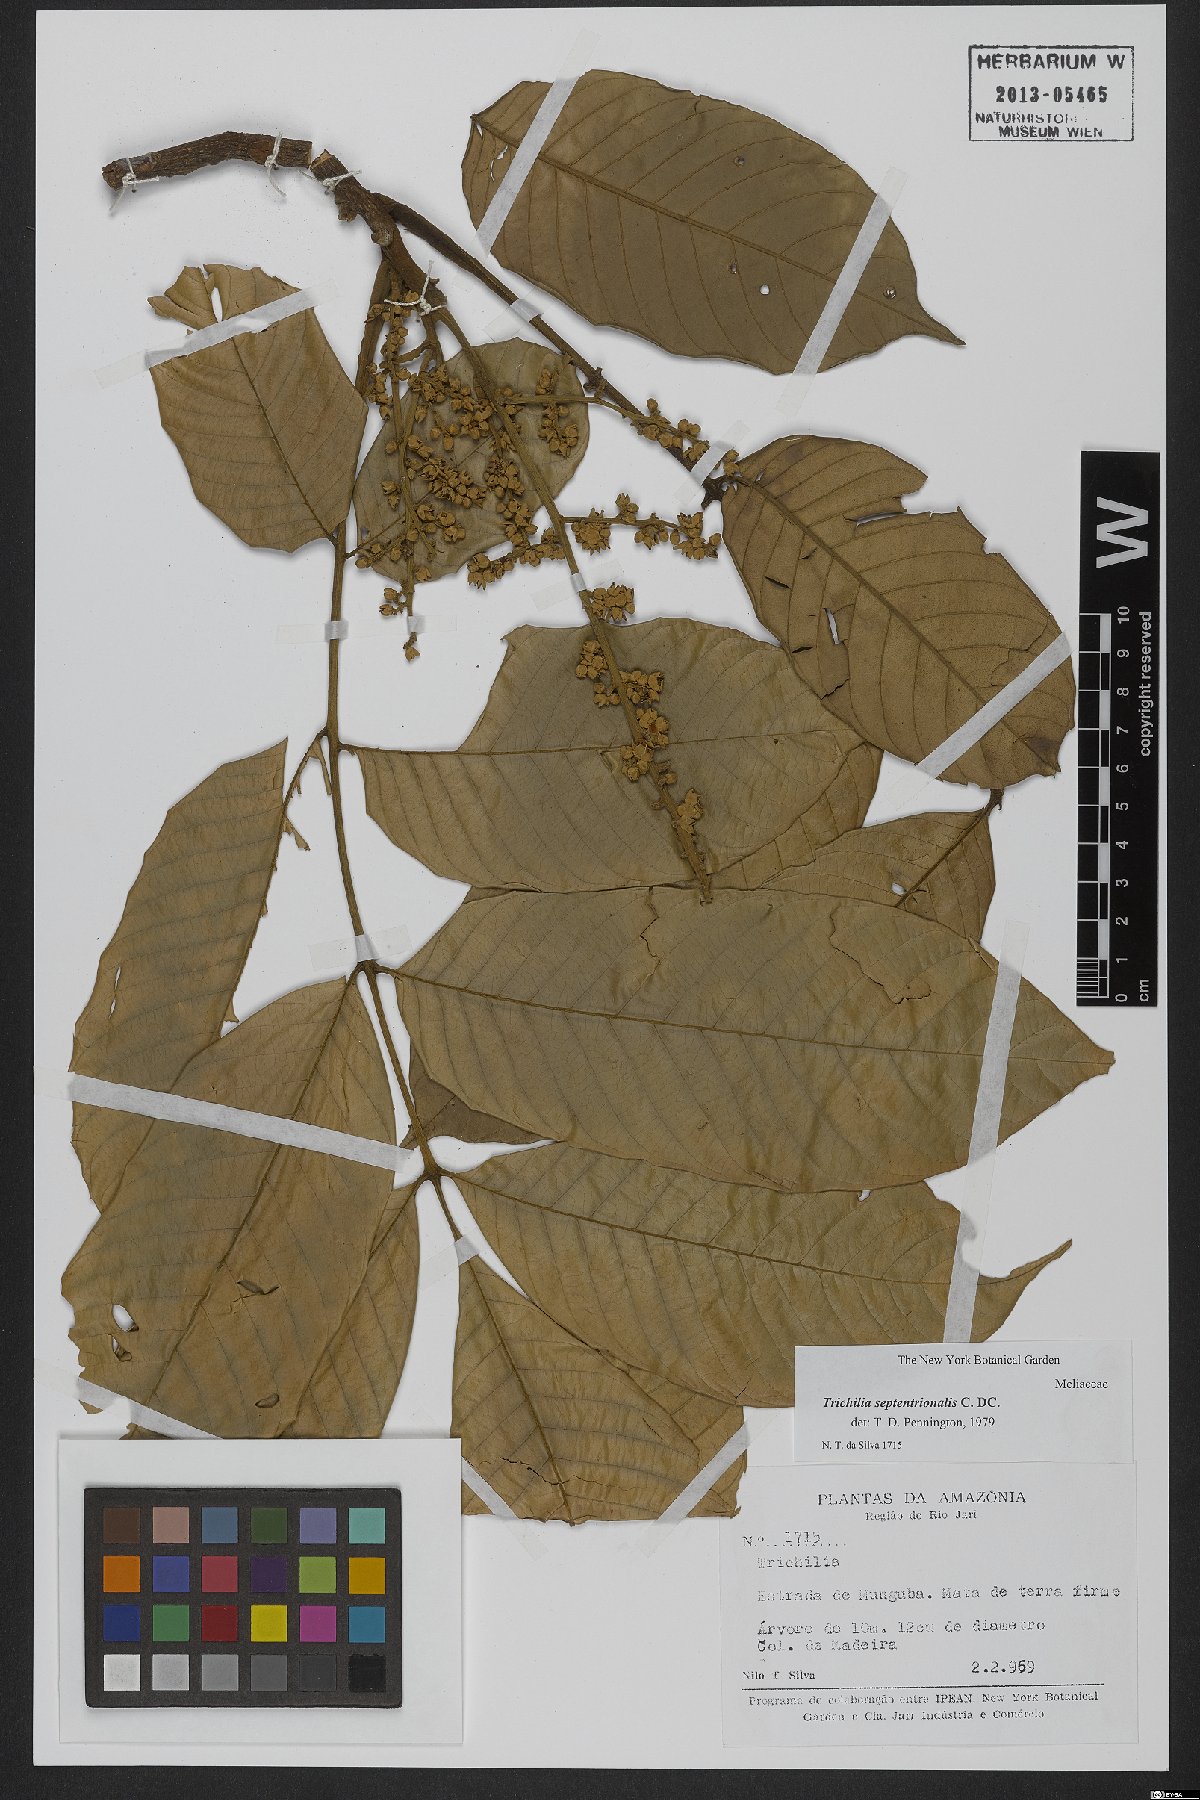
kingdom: Plantae
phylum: Tracheophyta
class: Magnoliopsida
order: Sapindales
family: Meliaceae
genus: Trichilia
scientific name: Trichilia septentrionalis
